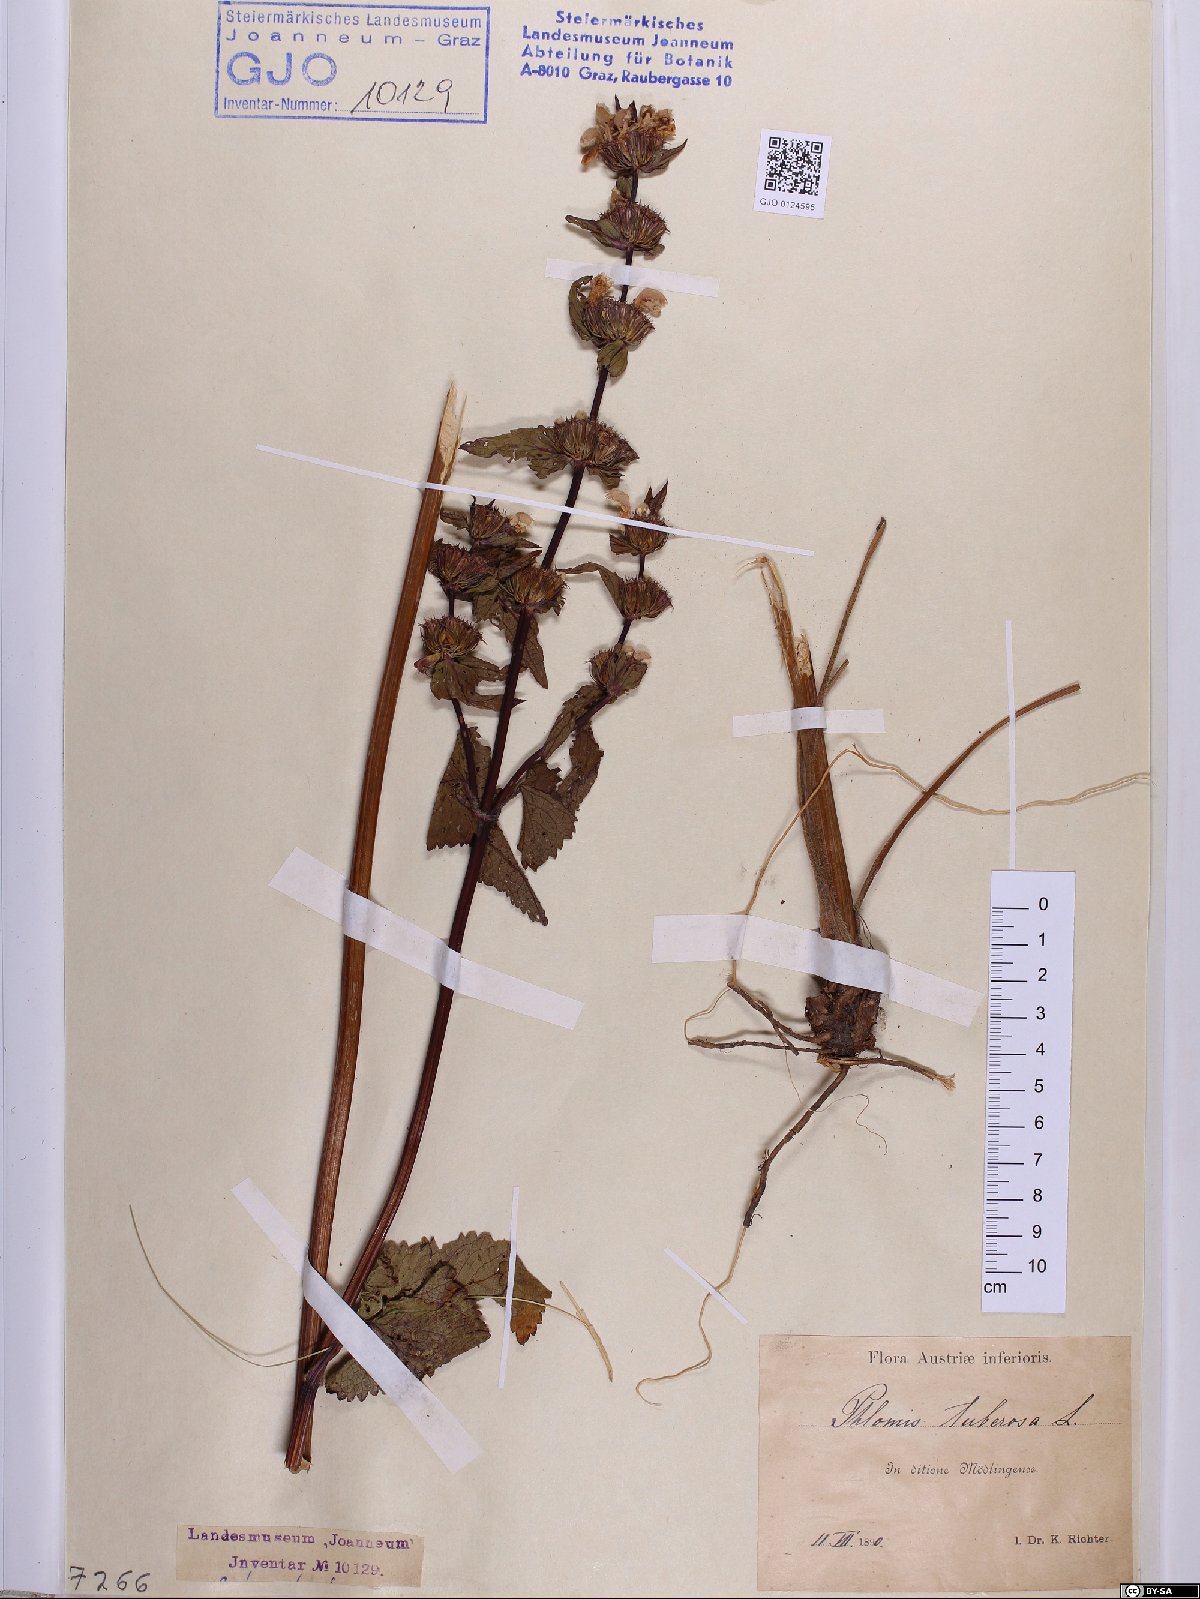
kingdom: Plantae
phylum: Tracheophyta
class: Magnoliopsida
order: Lamiales
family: Lamiaceae
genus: Phlomoides
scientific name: Phlomoides tuberosa
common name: Tuberous jerusalem sage
